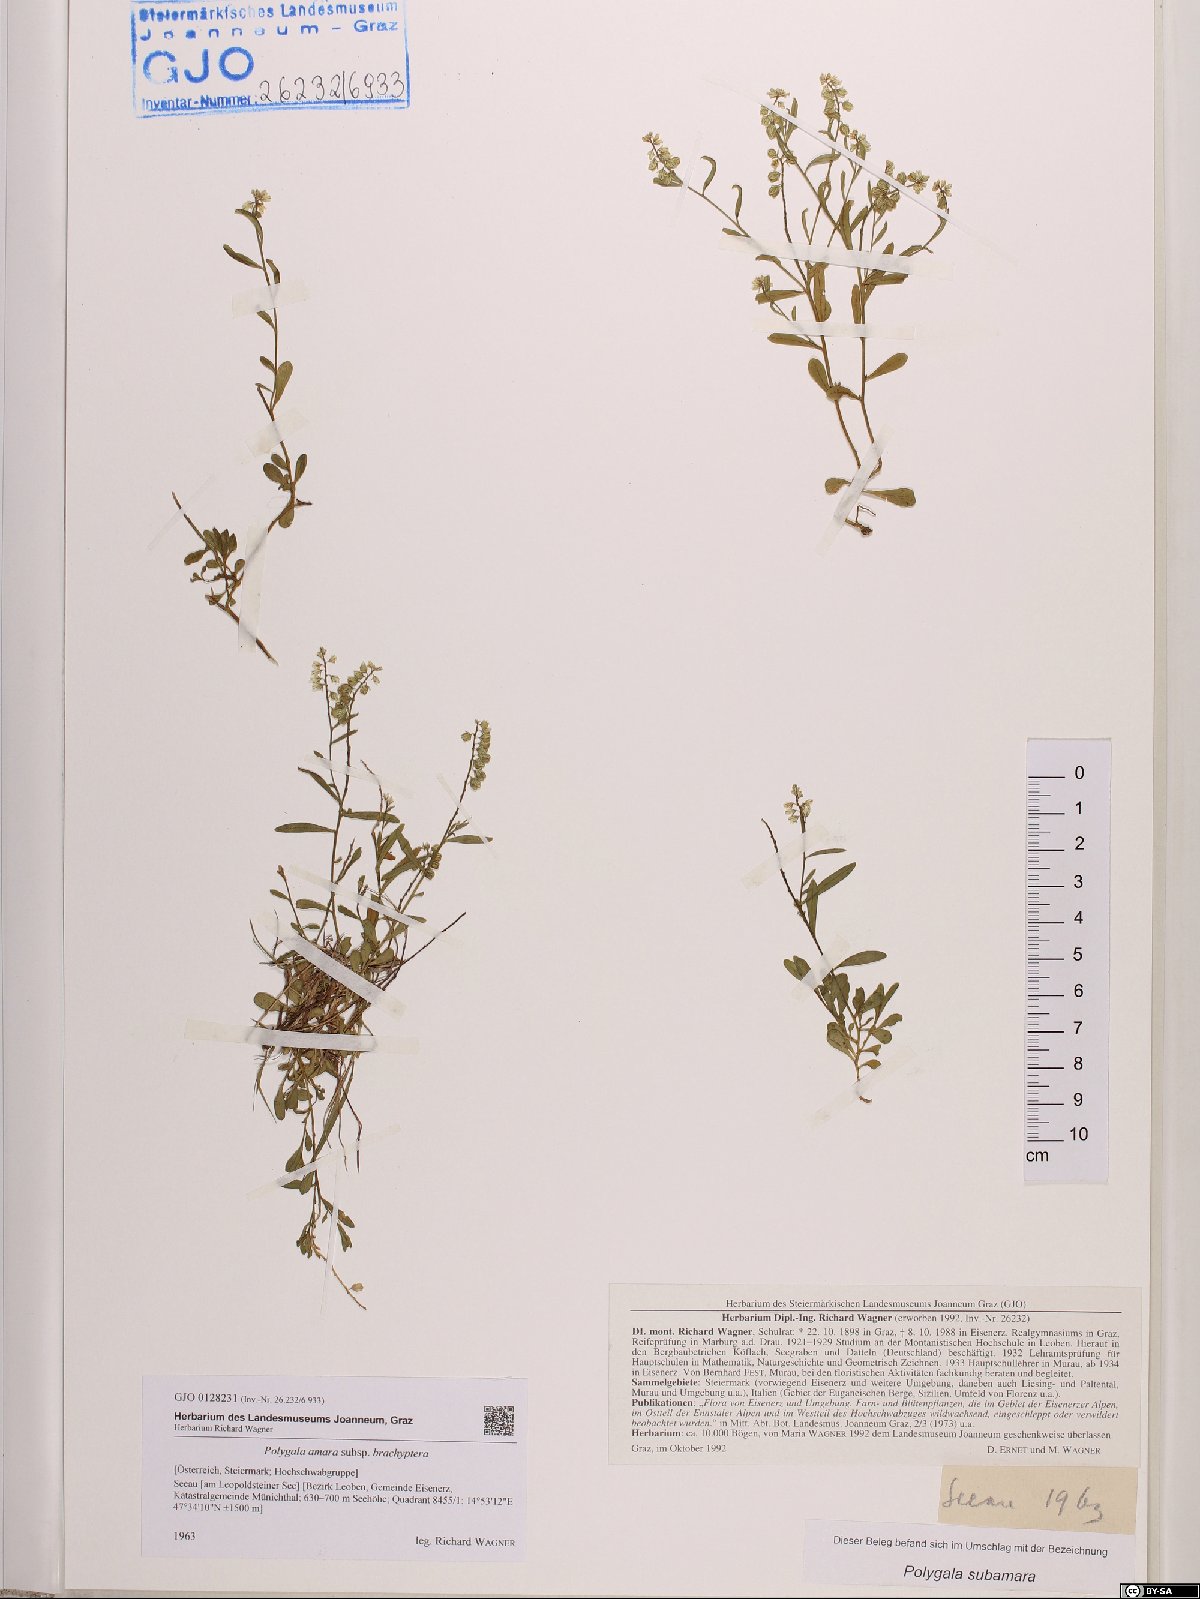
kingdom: Plantae
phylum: Tracheophyta
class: Magnoliopsida
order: Fabales
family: Polygalaceae
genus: Polygala
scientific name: Polygala amara
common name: Milkwort
